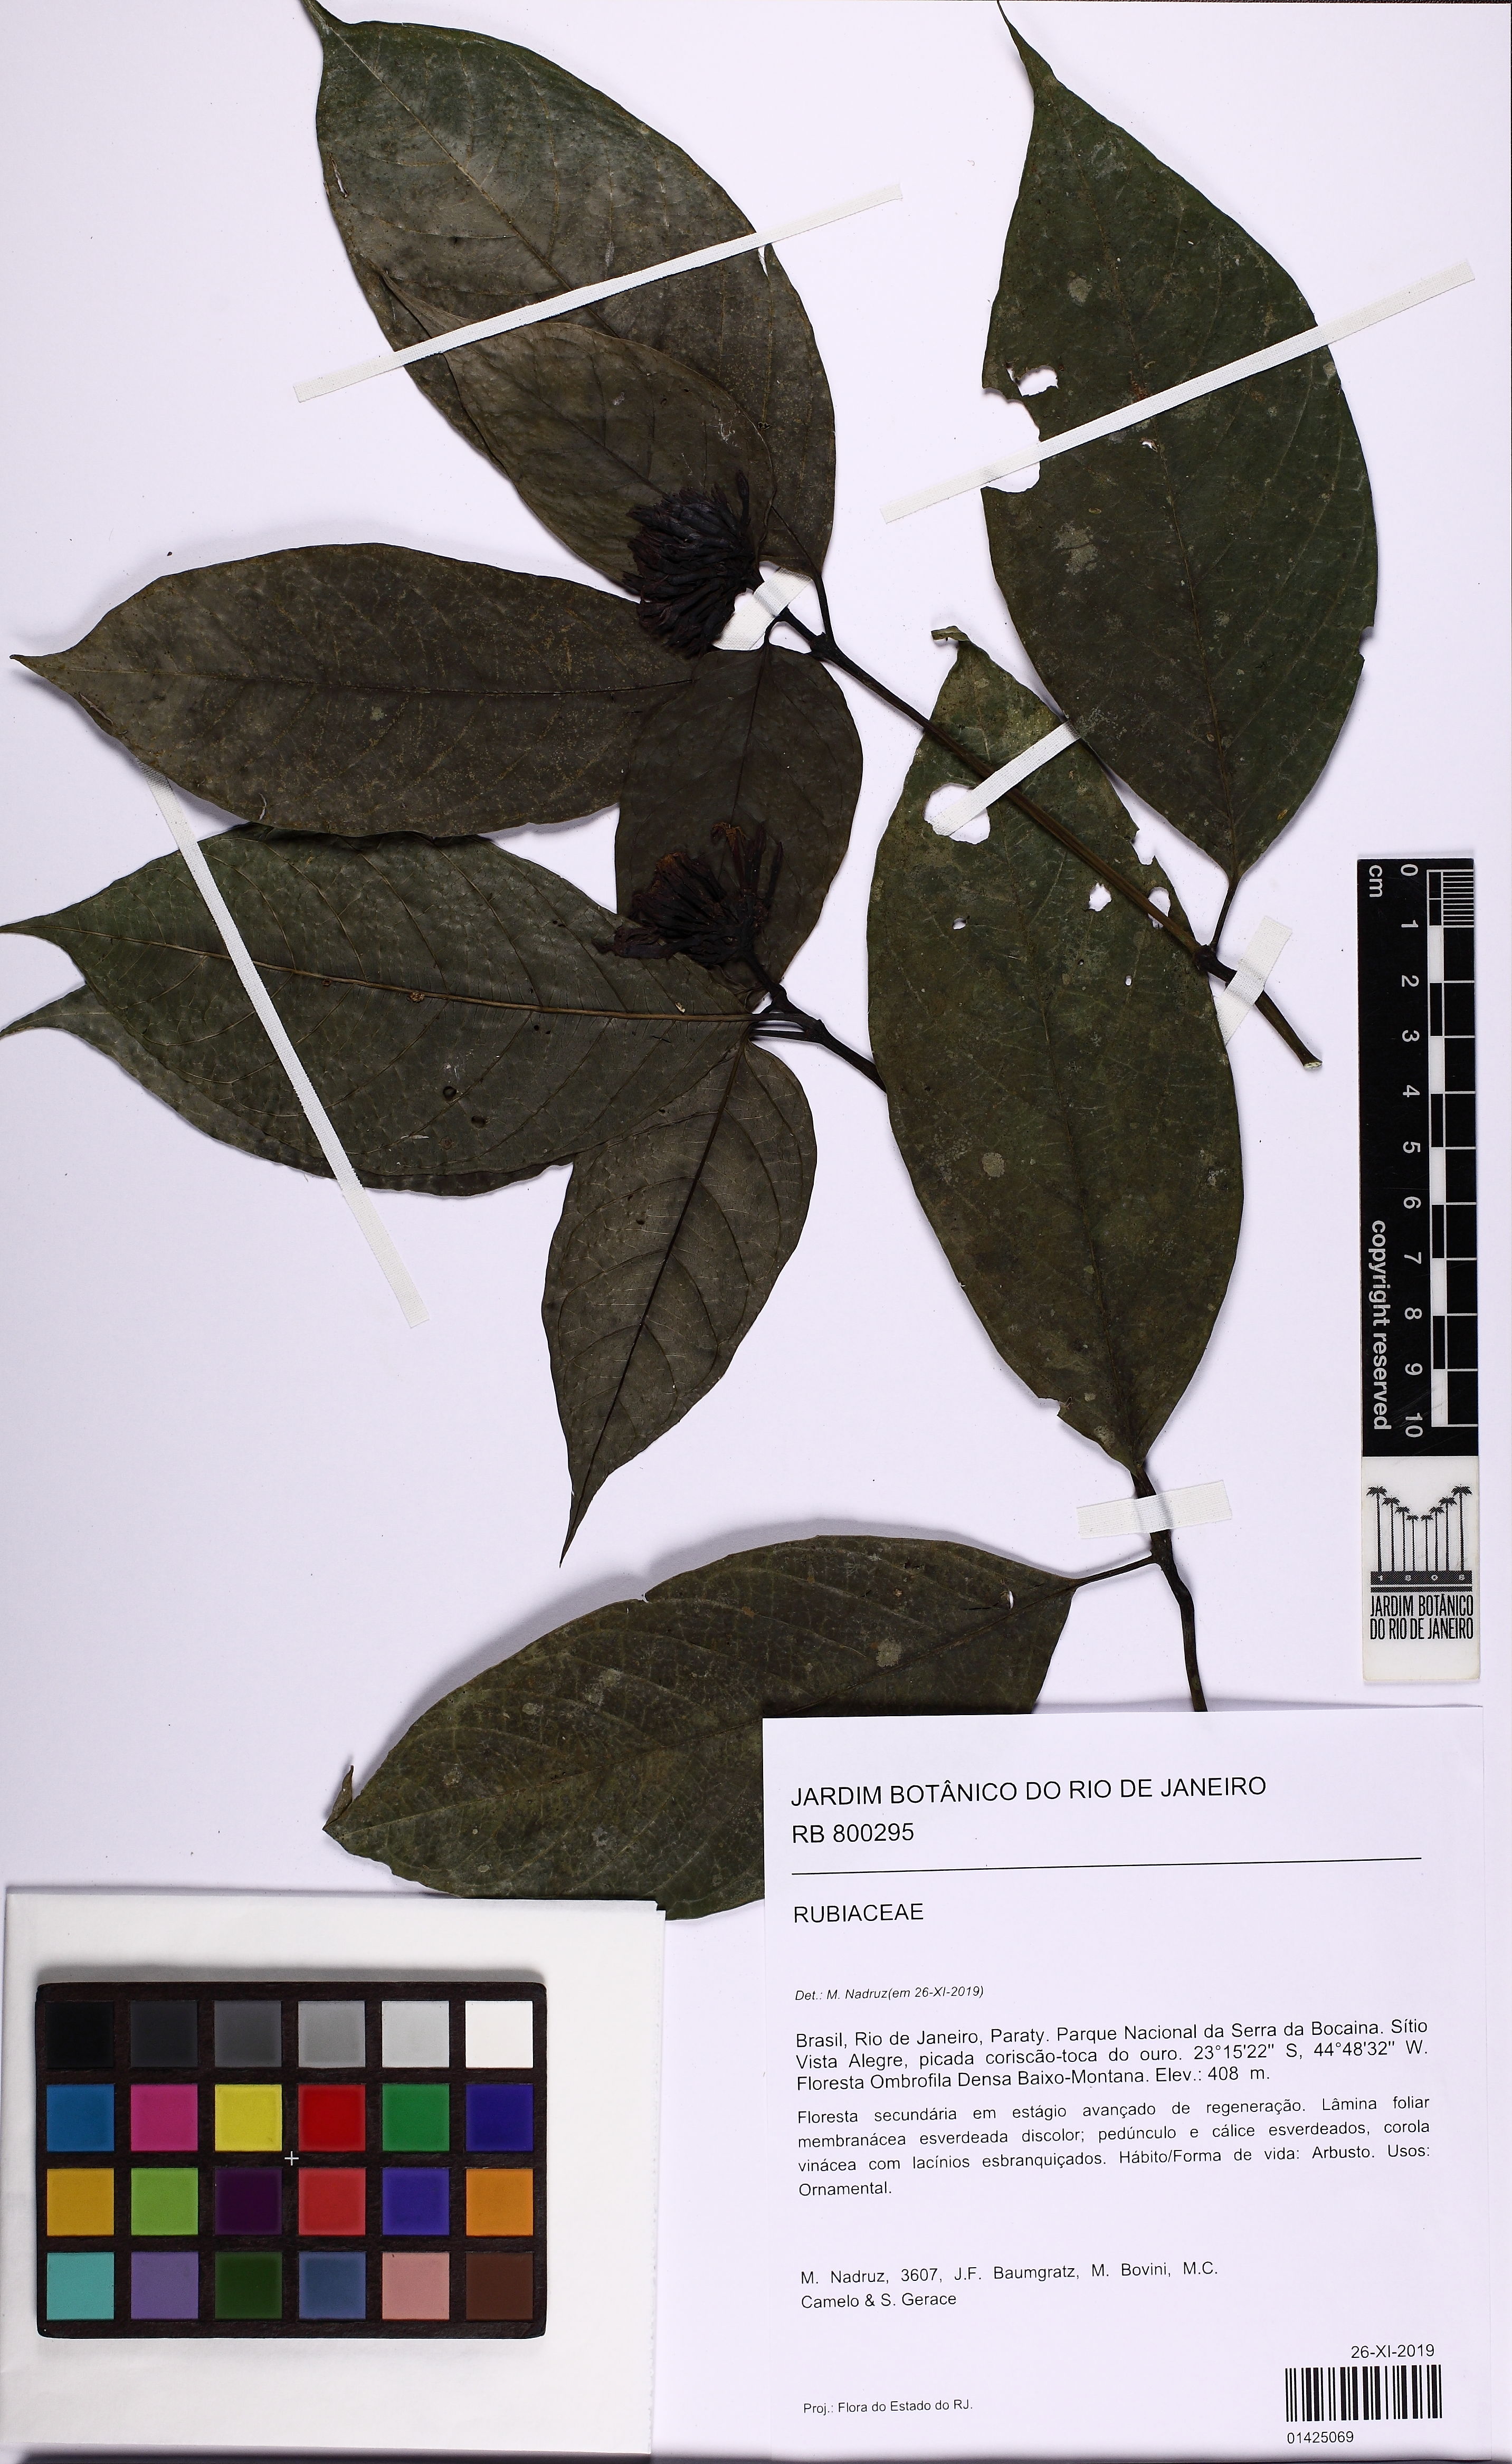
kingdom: Plantae
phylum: Tracheophyta
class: Magnoliopsida
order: Gentianales
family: Rubiaceae
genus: Psychotria
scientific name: Psychotria brachypoda
